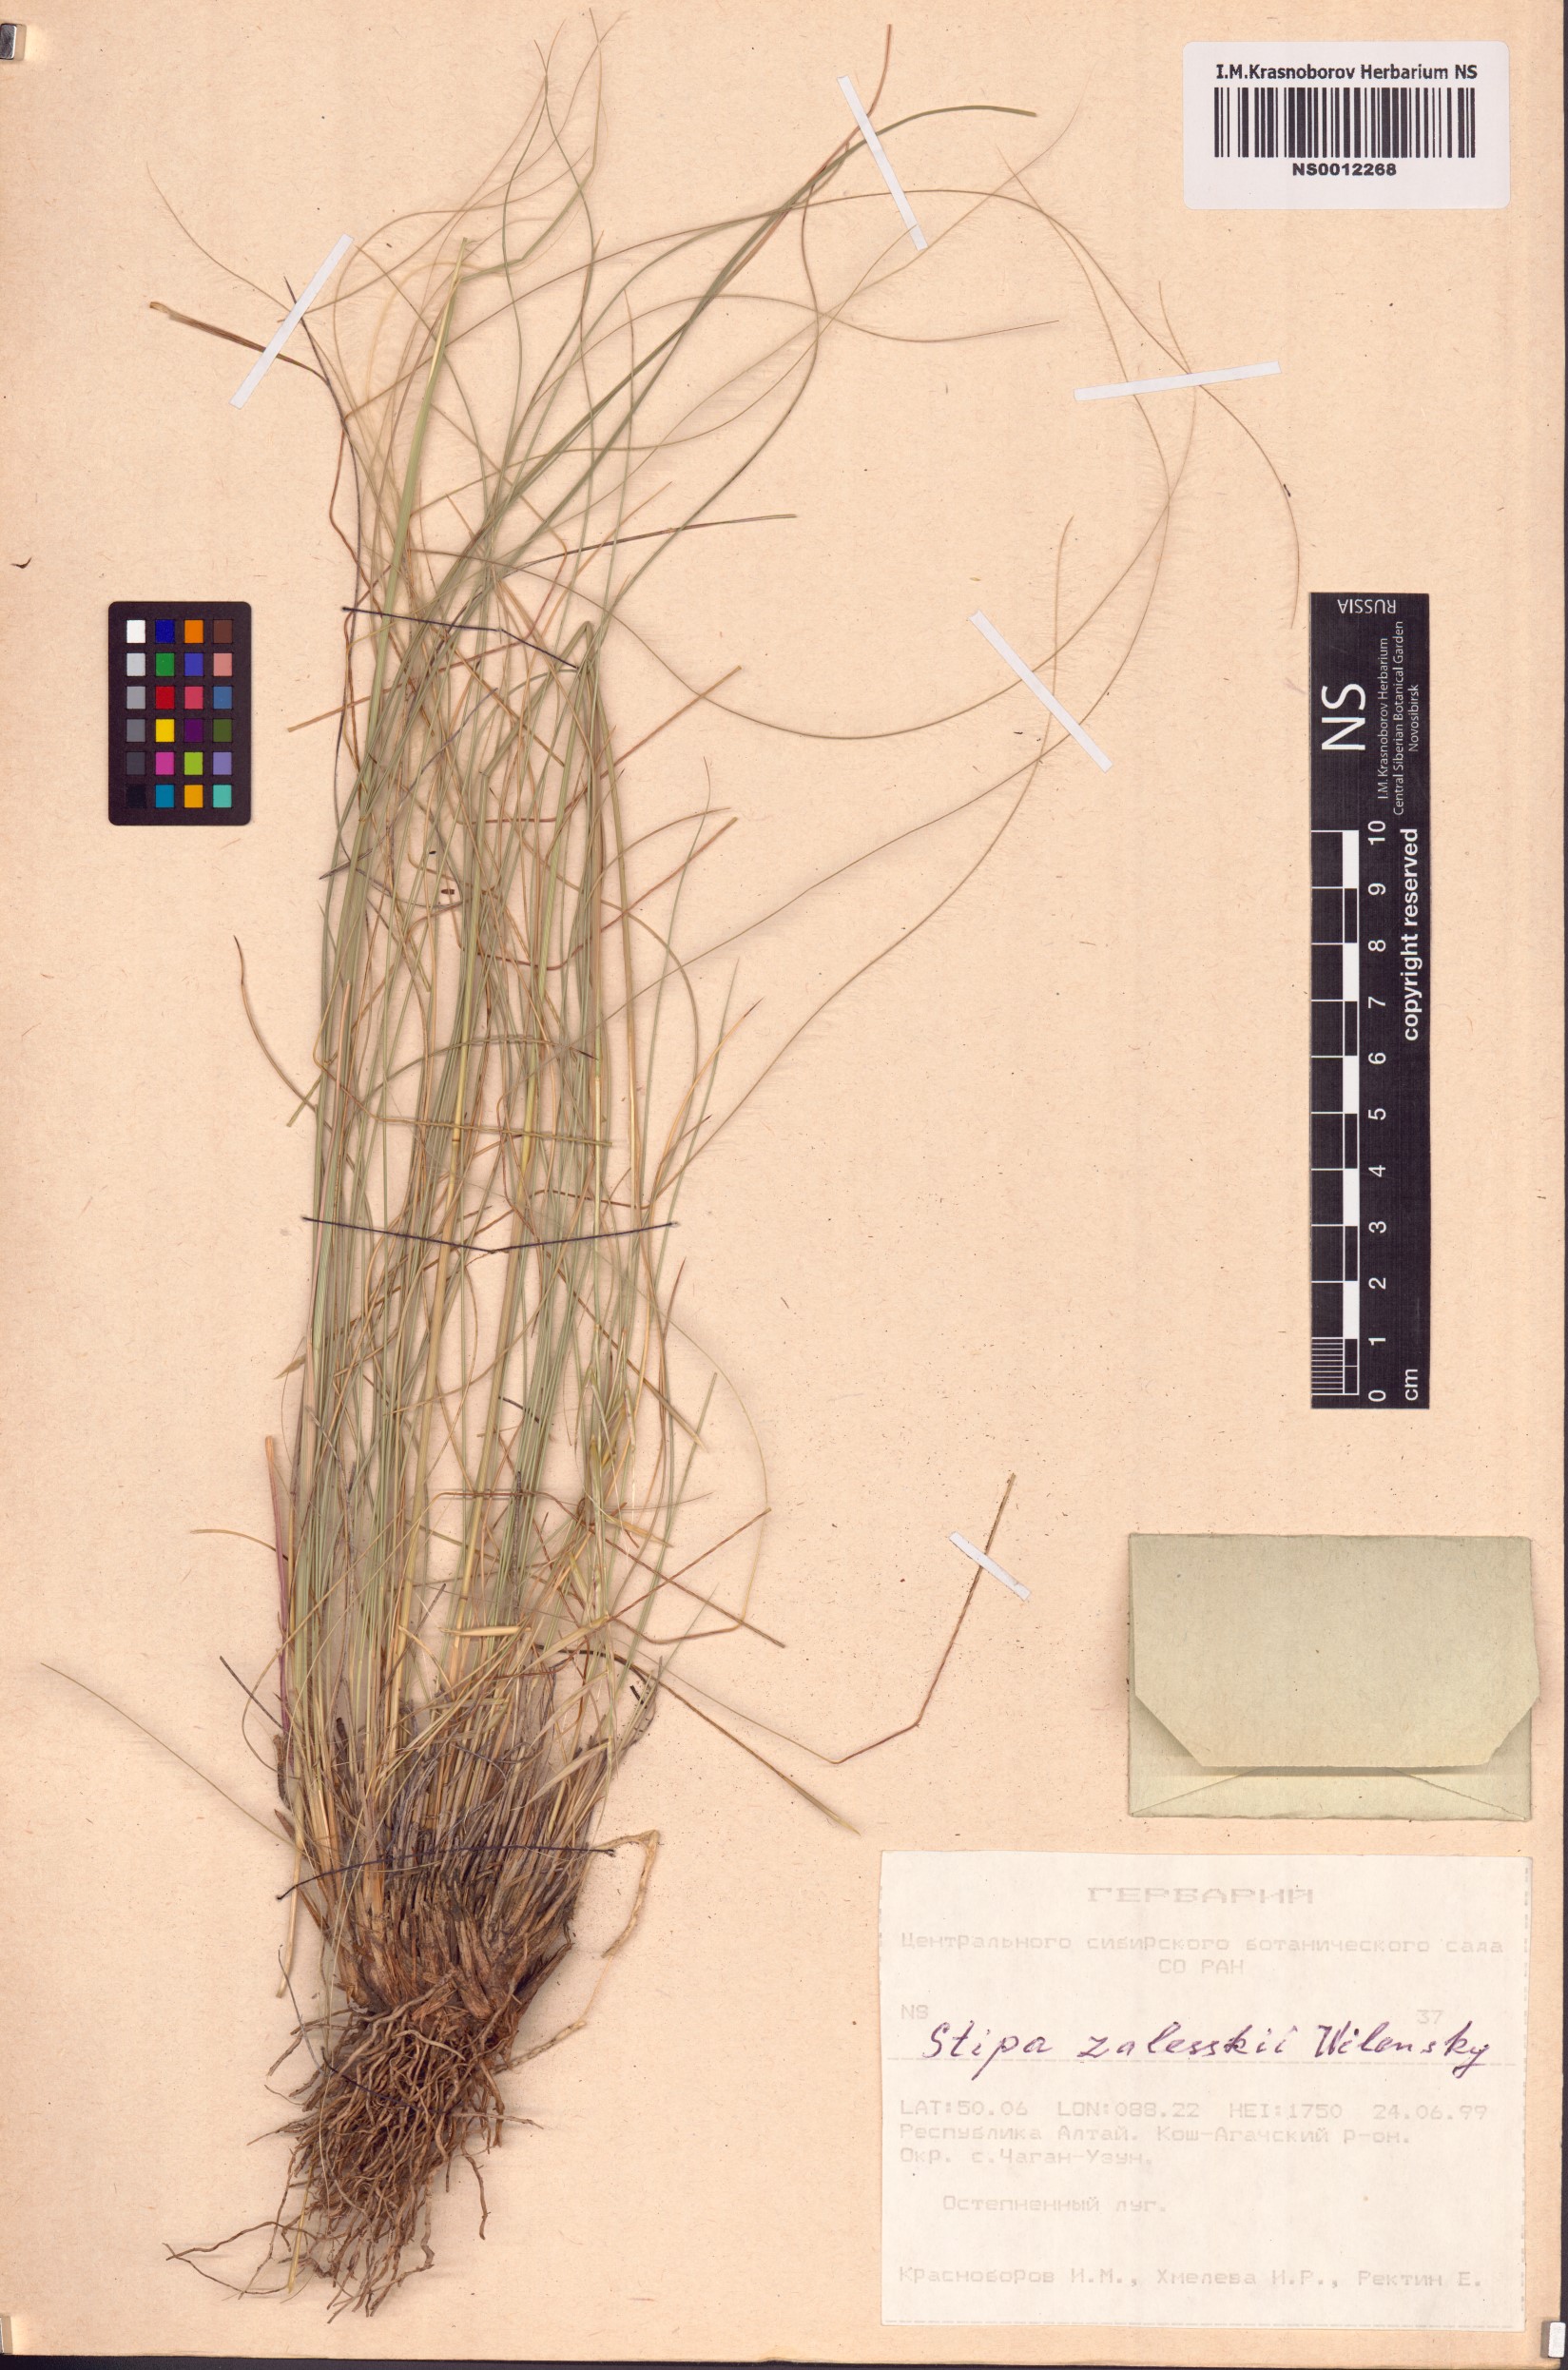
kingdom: Plantae
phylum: Tracheophyta
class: Liliopsida
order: Poales
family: Poaceae
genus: Stipa
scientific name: Stipa zalesskii
